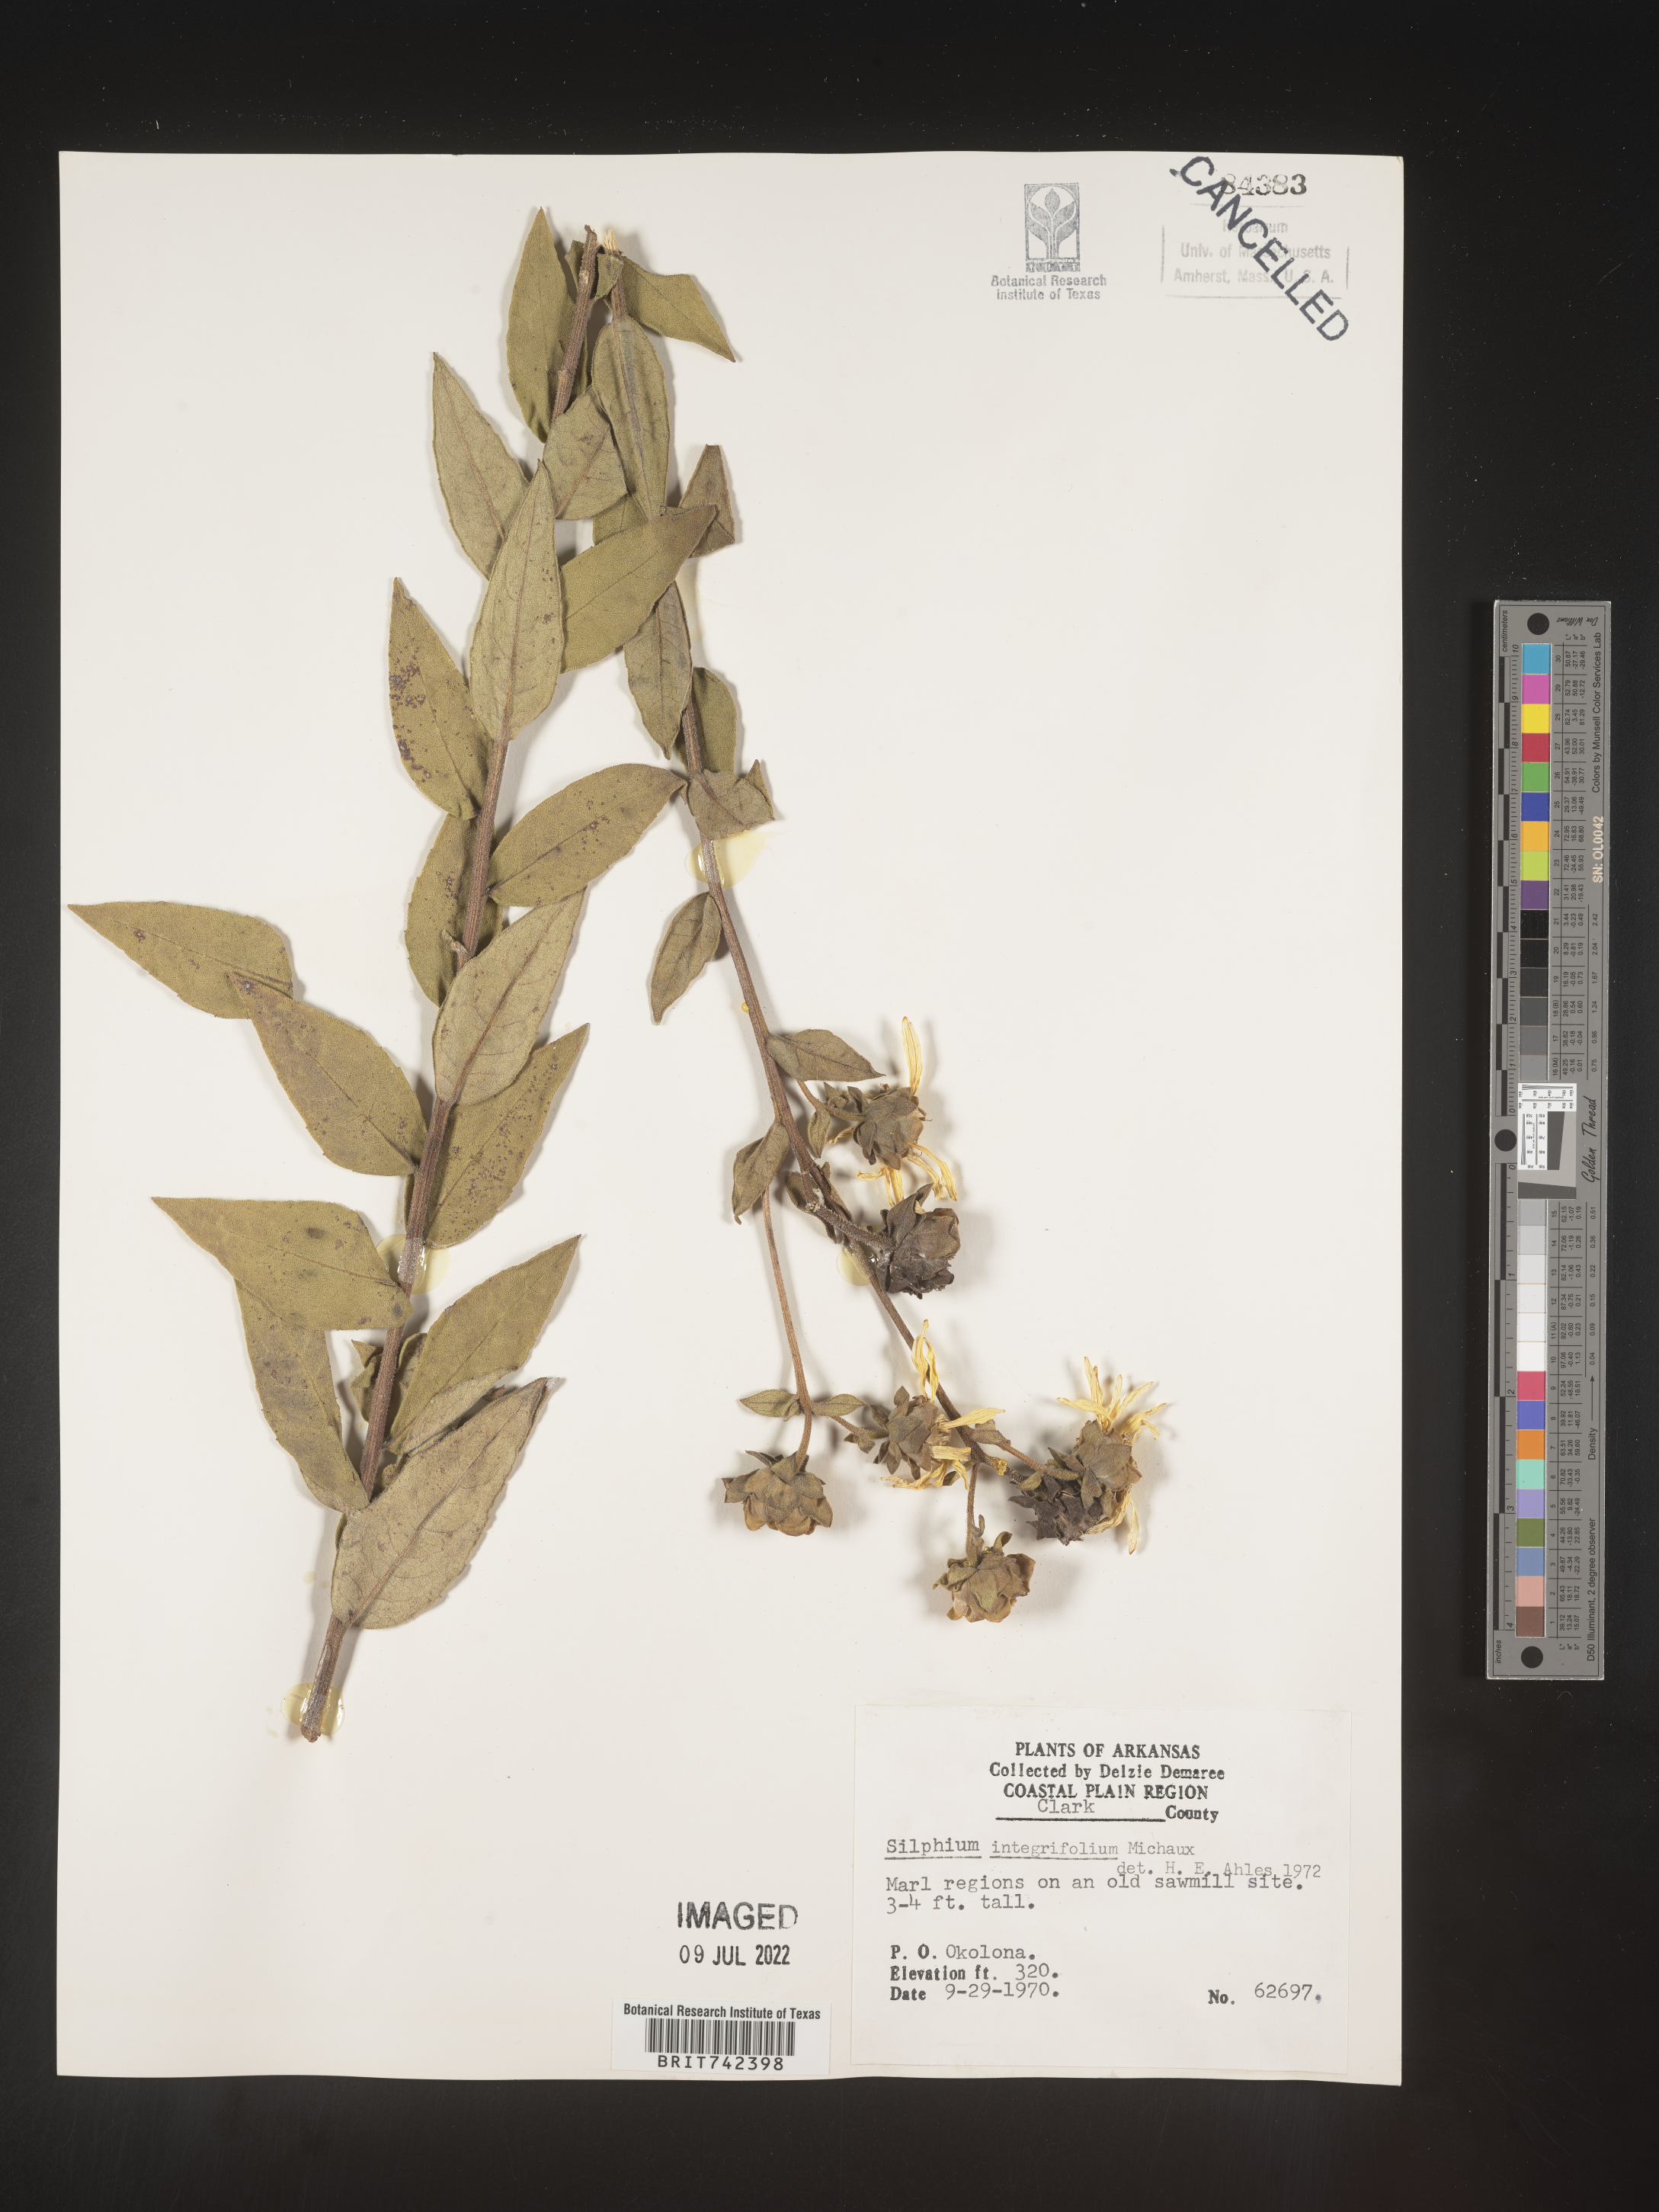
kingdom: Plantae
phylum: Tracheophyta
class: Magnoliopsida
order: Asterales
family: Asteraceae
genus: Silphium
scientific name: Silphium radula
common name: Roughleaf rosinweed
